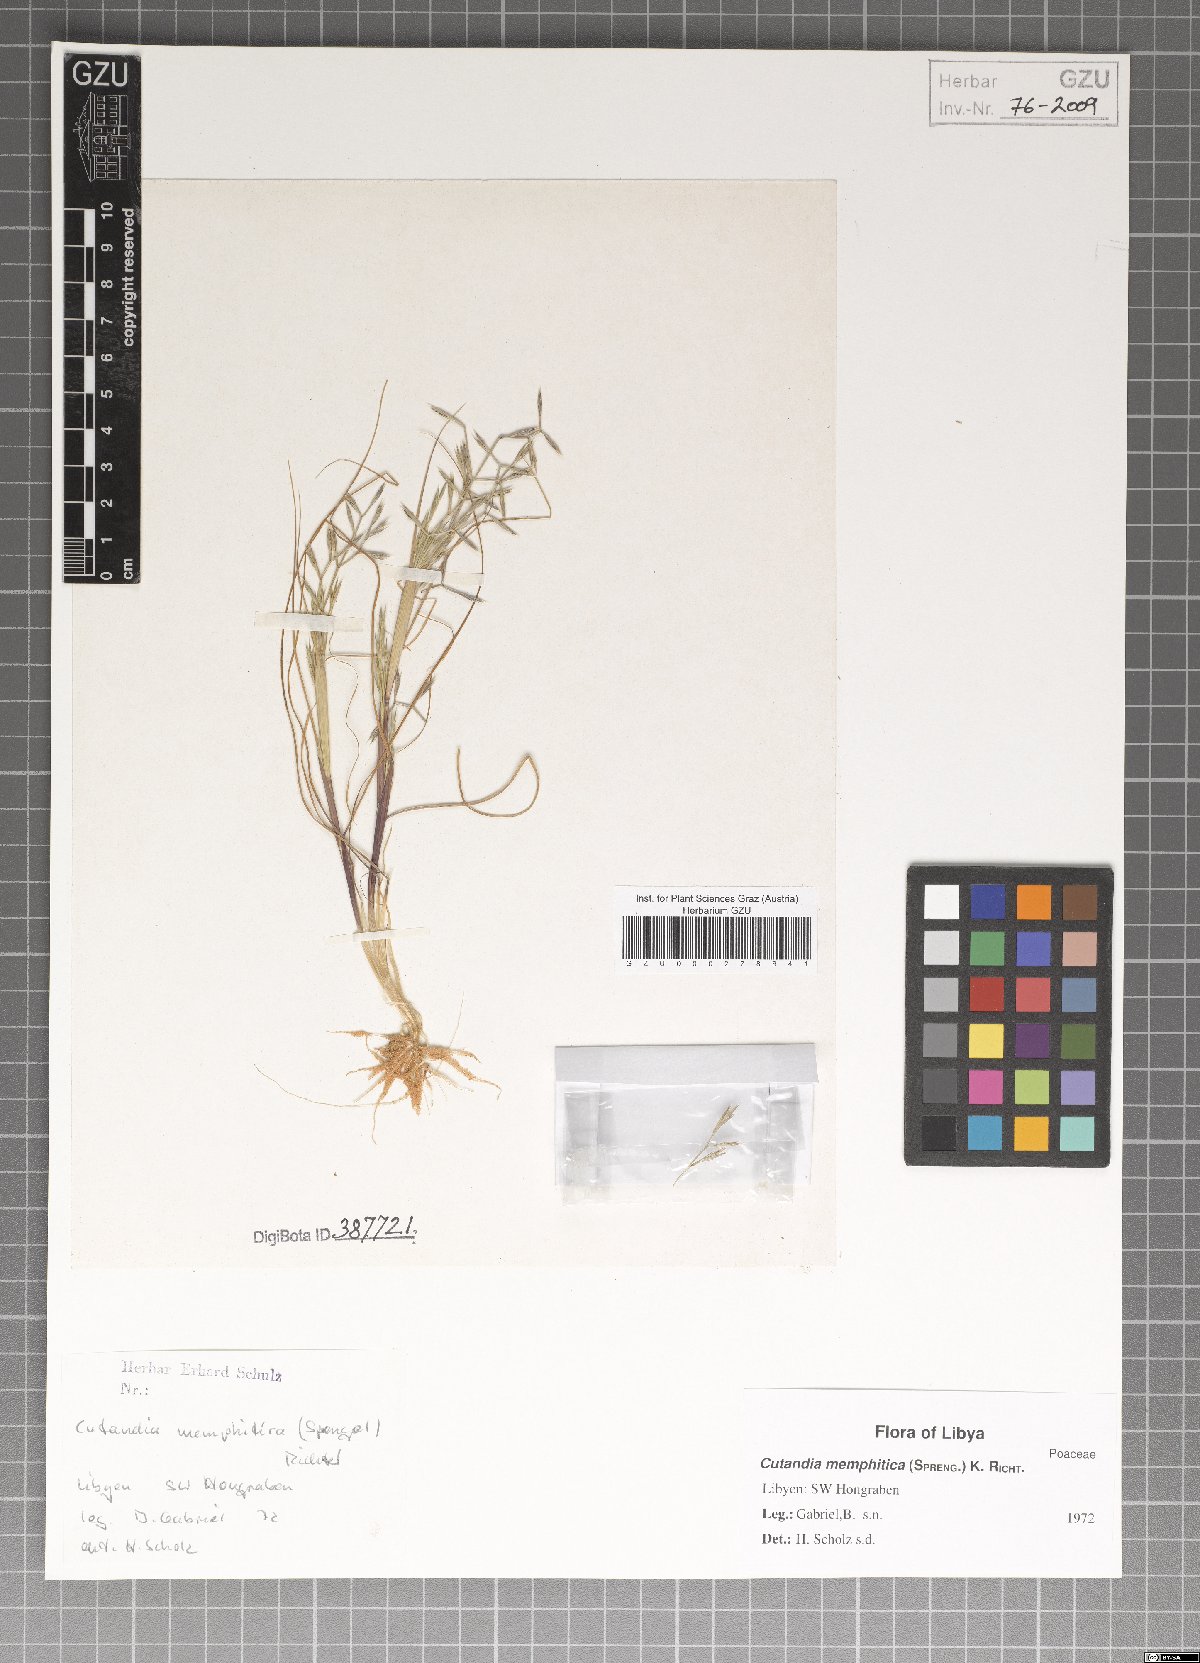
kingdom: Plantae
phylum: Tracheophyta
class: Liliopsida
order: Poales
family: Poaceae
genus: Cutandia
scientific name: Cutandia memphitica
